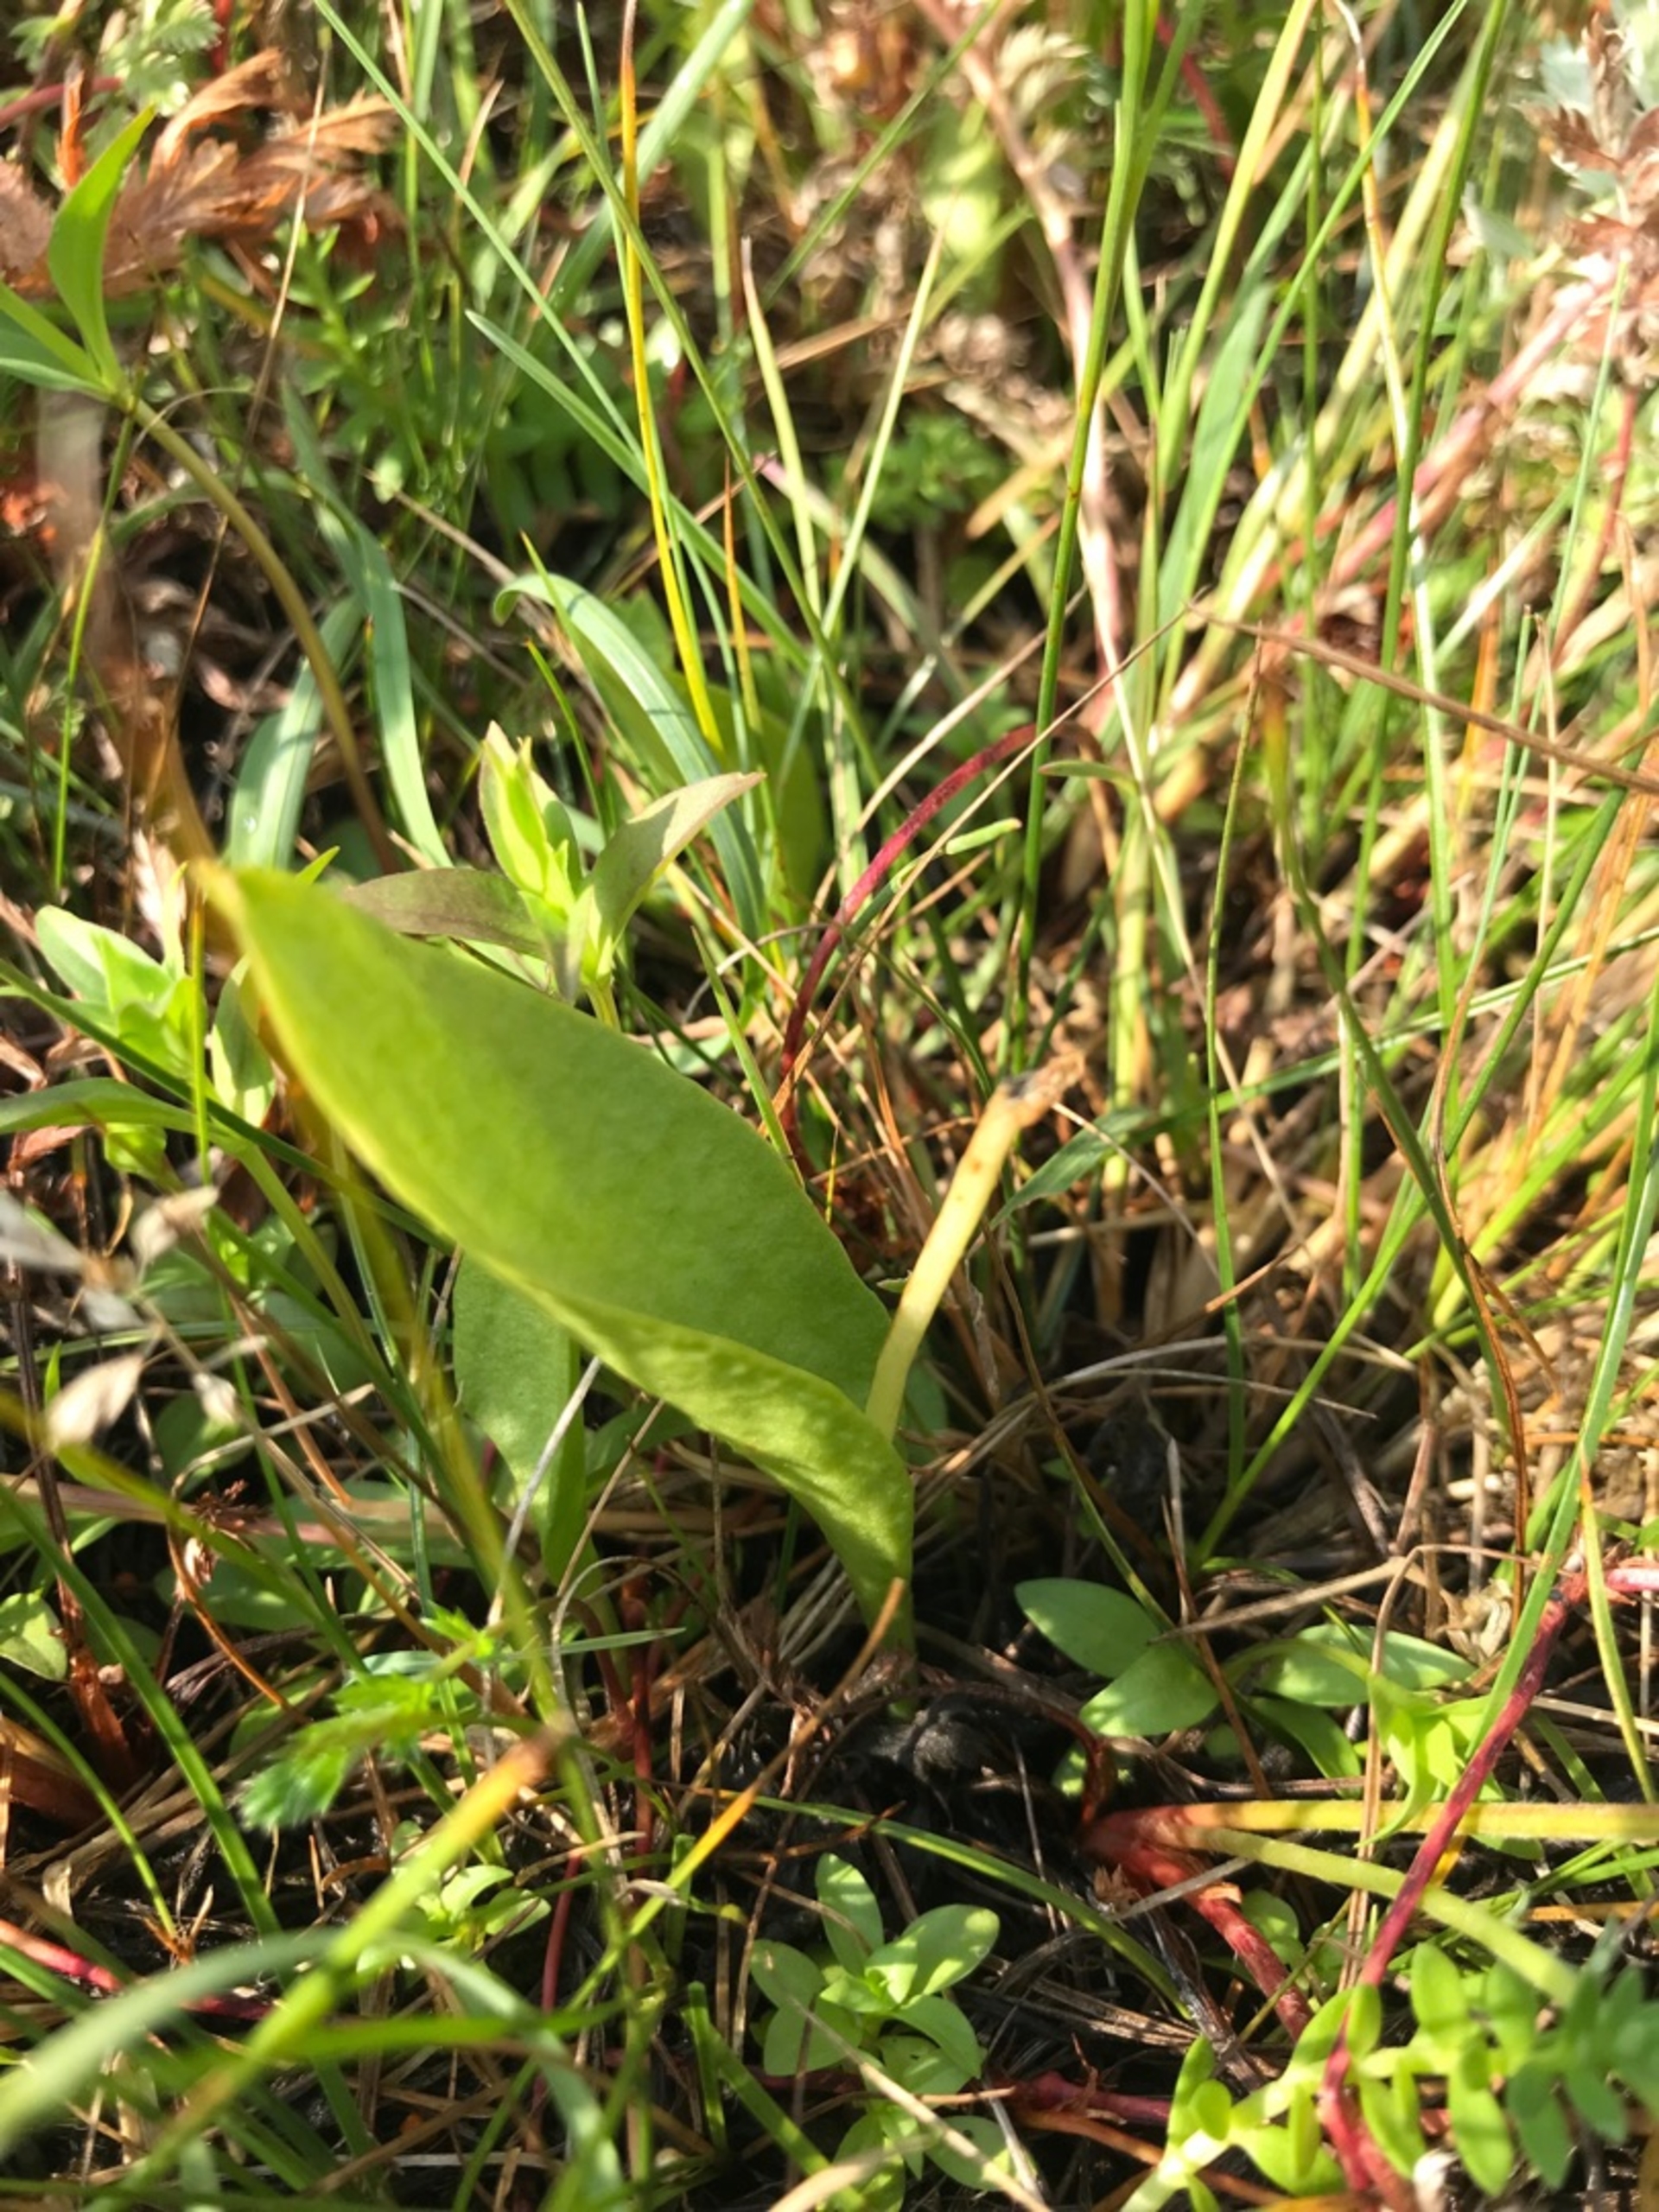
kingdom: Plantae
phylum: Tracheophyta
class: Polypodiopsida
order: Ophioglossales
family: Ophioglossaceae
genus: Ophioglossum
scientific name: Ophioglossum vulgatum
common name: Slangetunge
